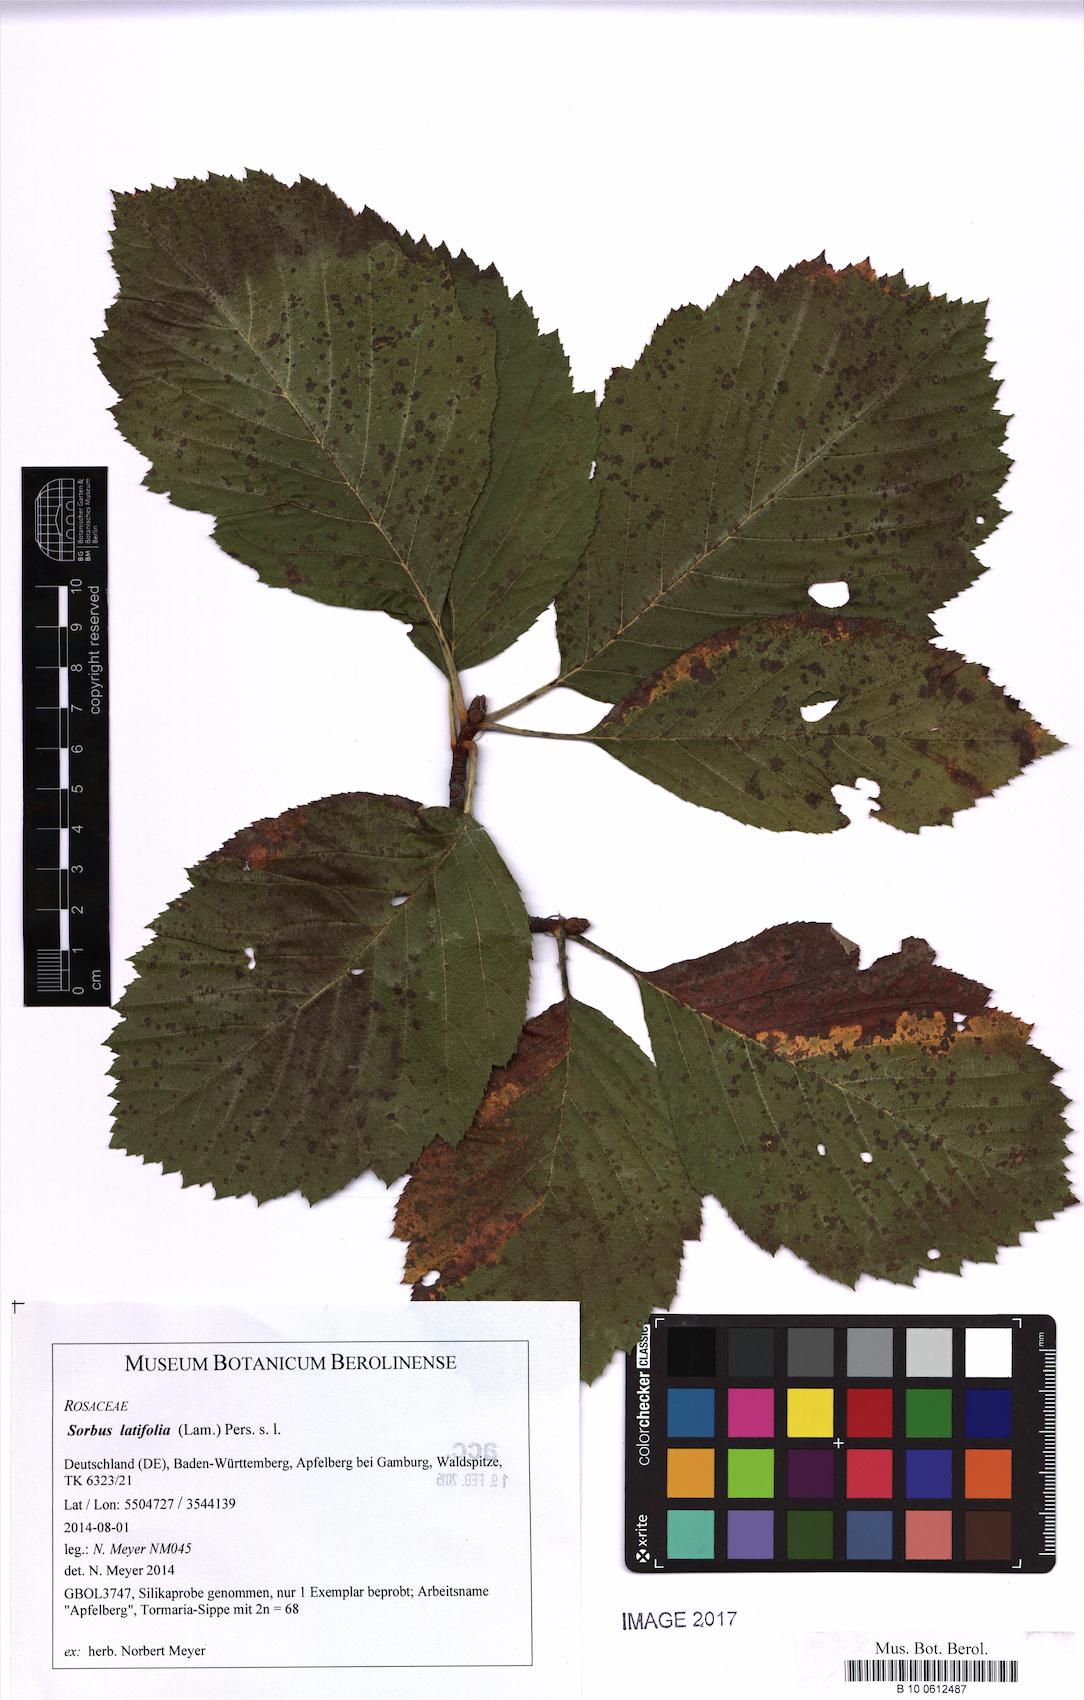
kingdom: Plantae
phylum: Tracheophyta
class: Magnoliopsida
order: Rosales
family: Rosaceae
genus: Karpatiosorbus
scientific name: Karpatiosorbus latifolia
